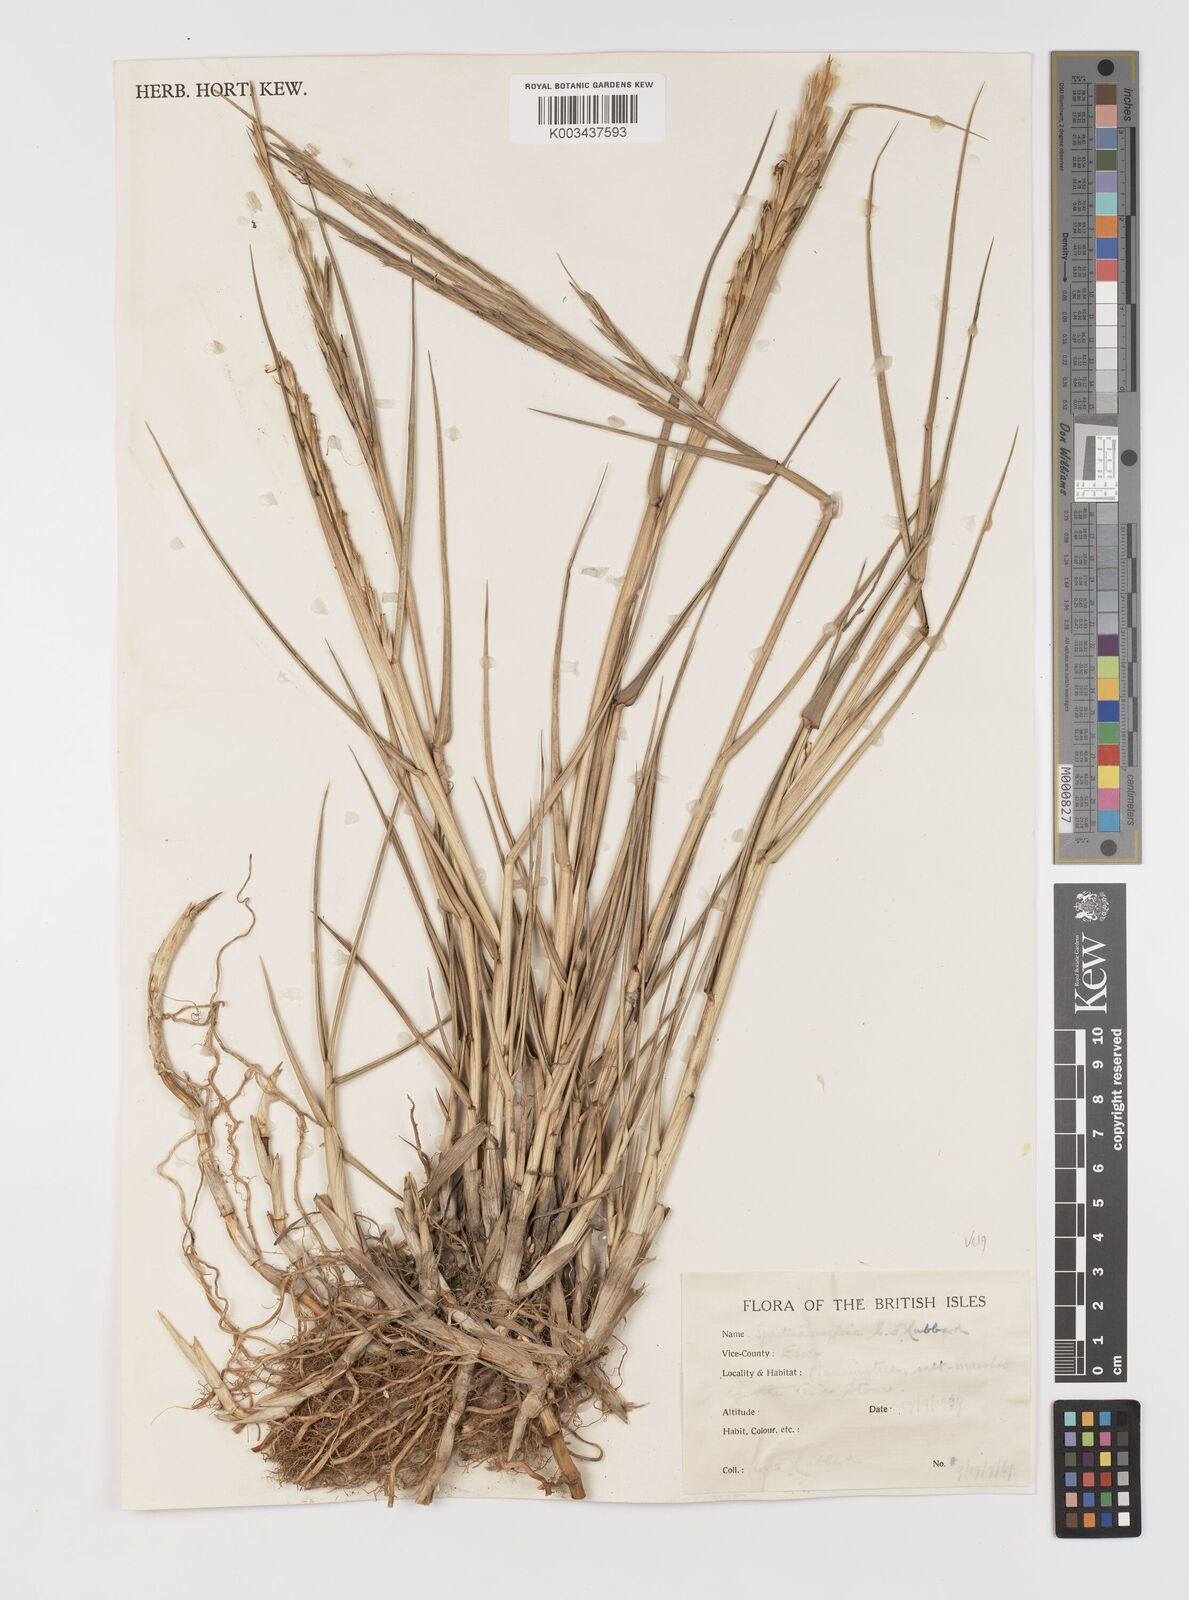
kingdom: Plantae
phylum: Tracheophyta
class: Liliopsida
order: Poales
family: Poaceae
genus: Sporobolus
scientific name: Sporobolus anglicus
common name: English cordgrass
